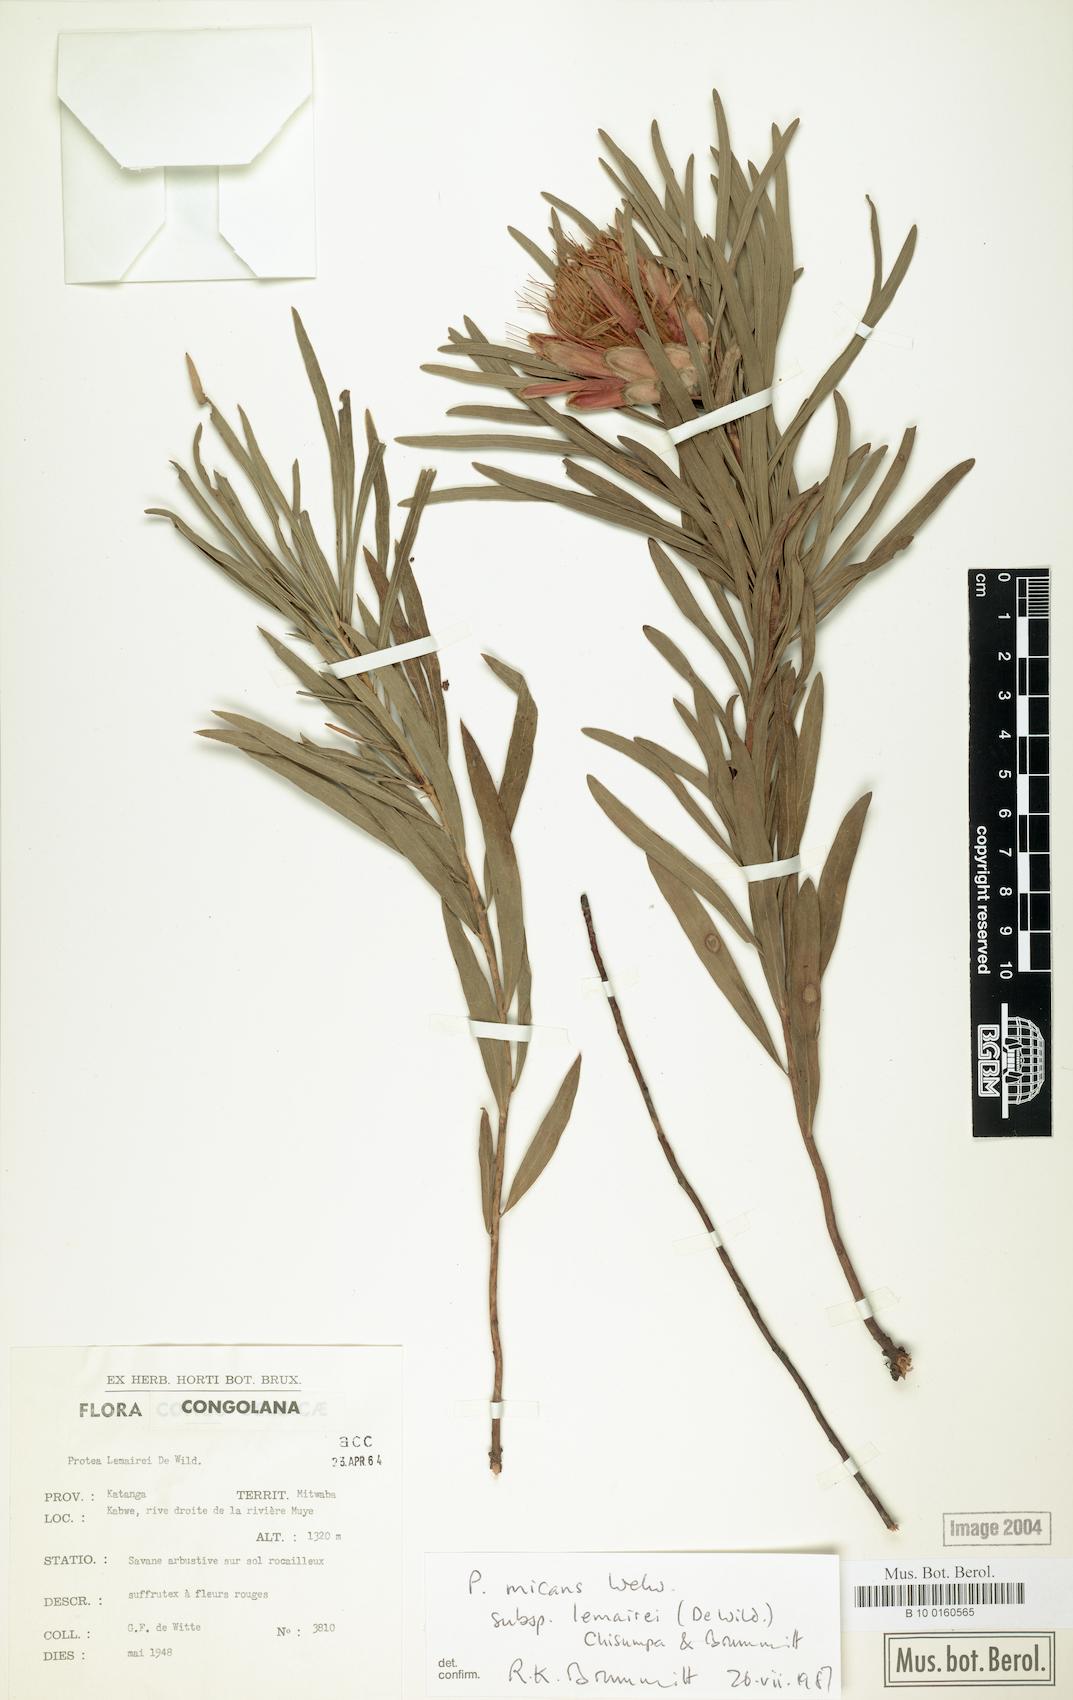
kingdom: Plantae
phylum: Tracheophyta
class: Magnoliopsida
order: Proteales
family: Proteaceae
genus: Protea
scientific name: Protea micans
